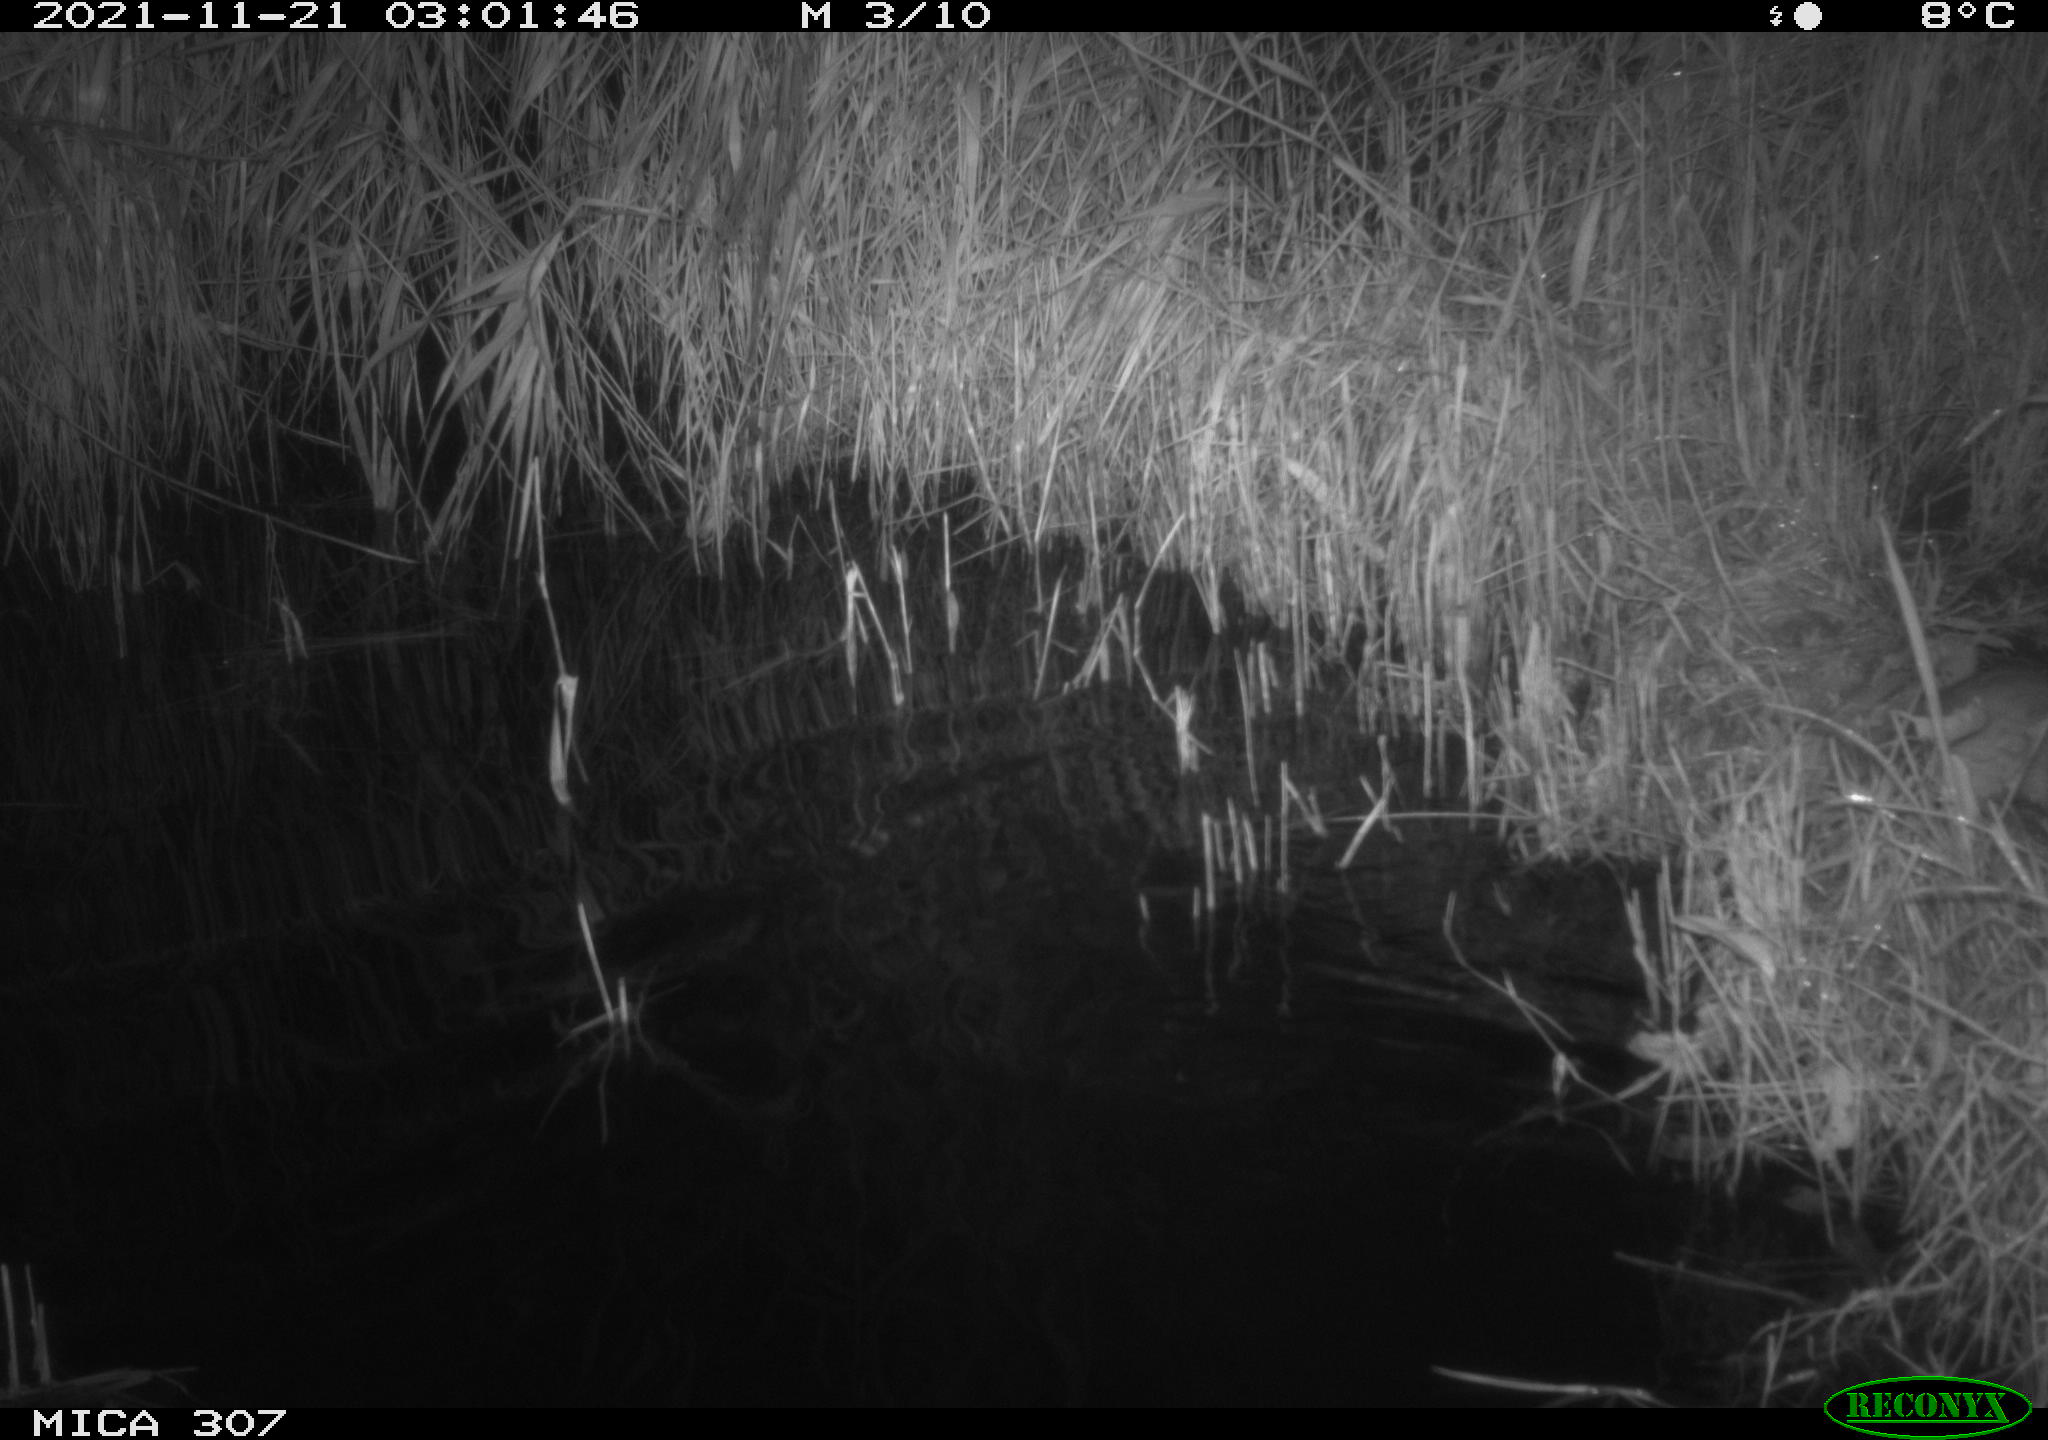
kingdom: Animalia
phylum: Chordata
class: Mammalia
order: Rodentia
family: Muridae
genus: Rattus
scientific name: Rattus norvegicus
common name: Brown rat
